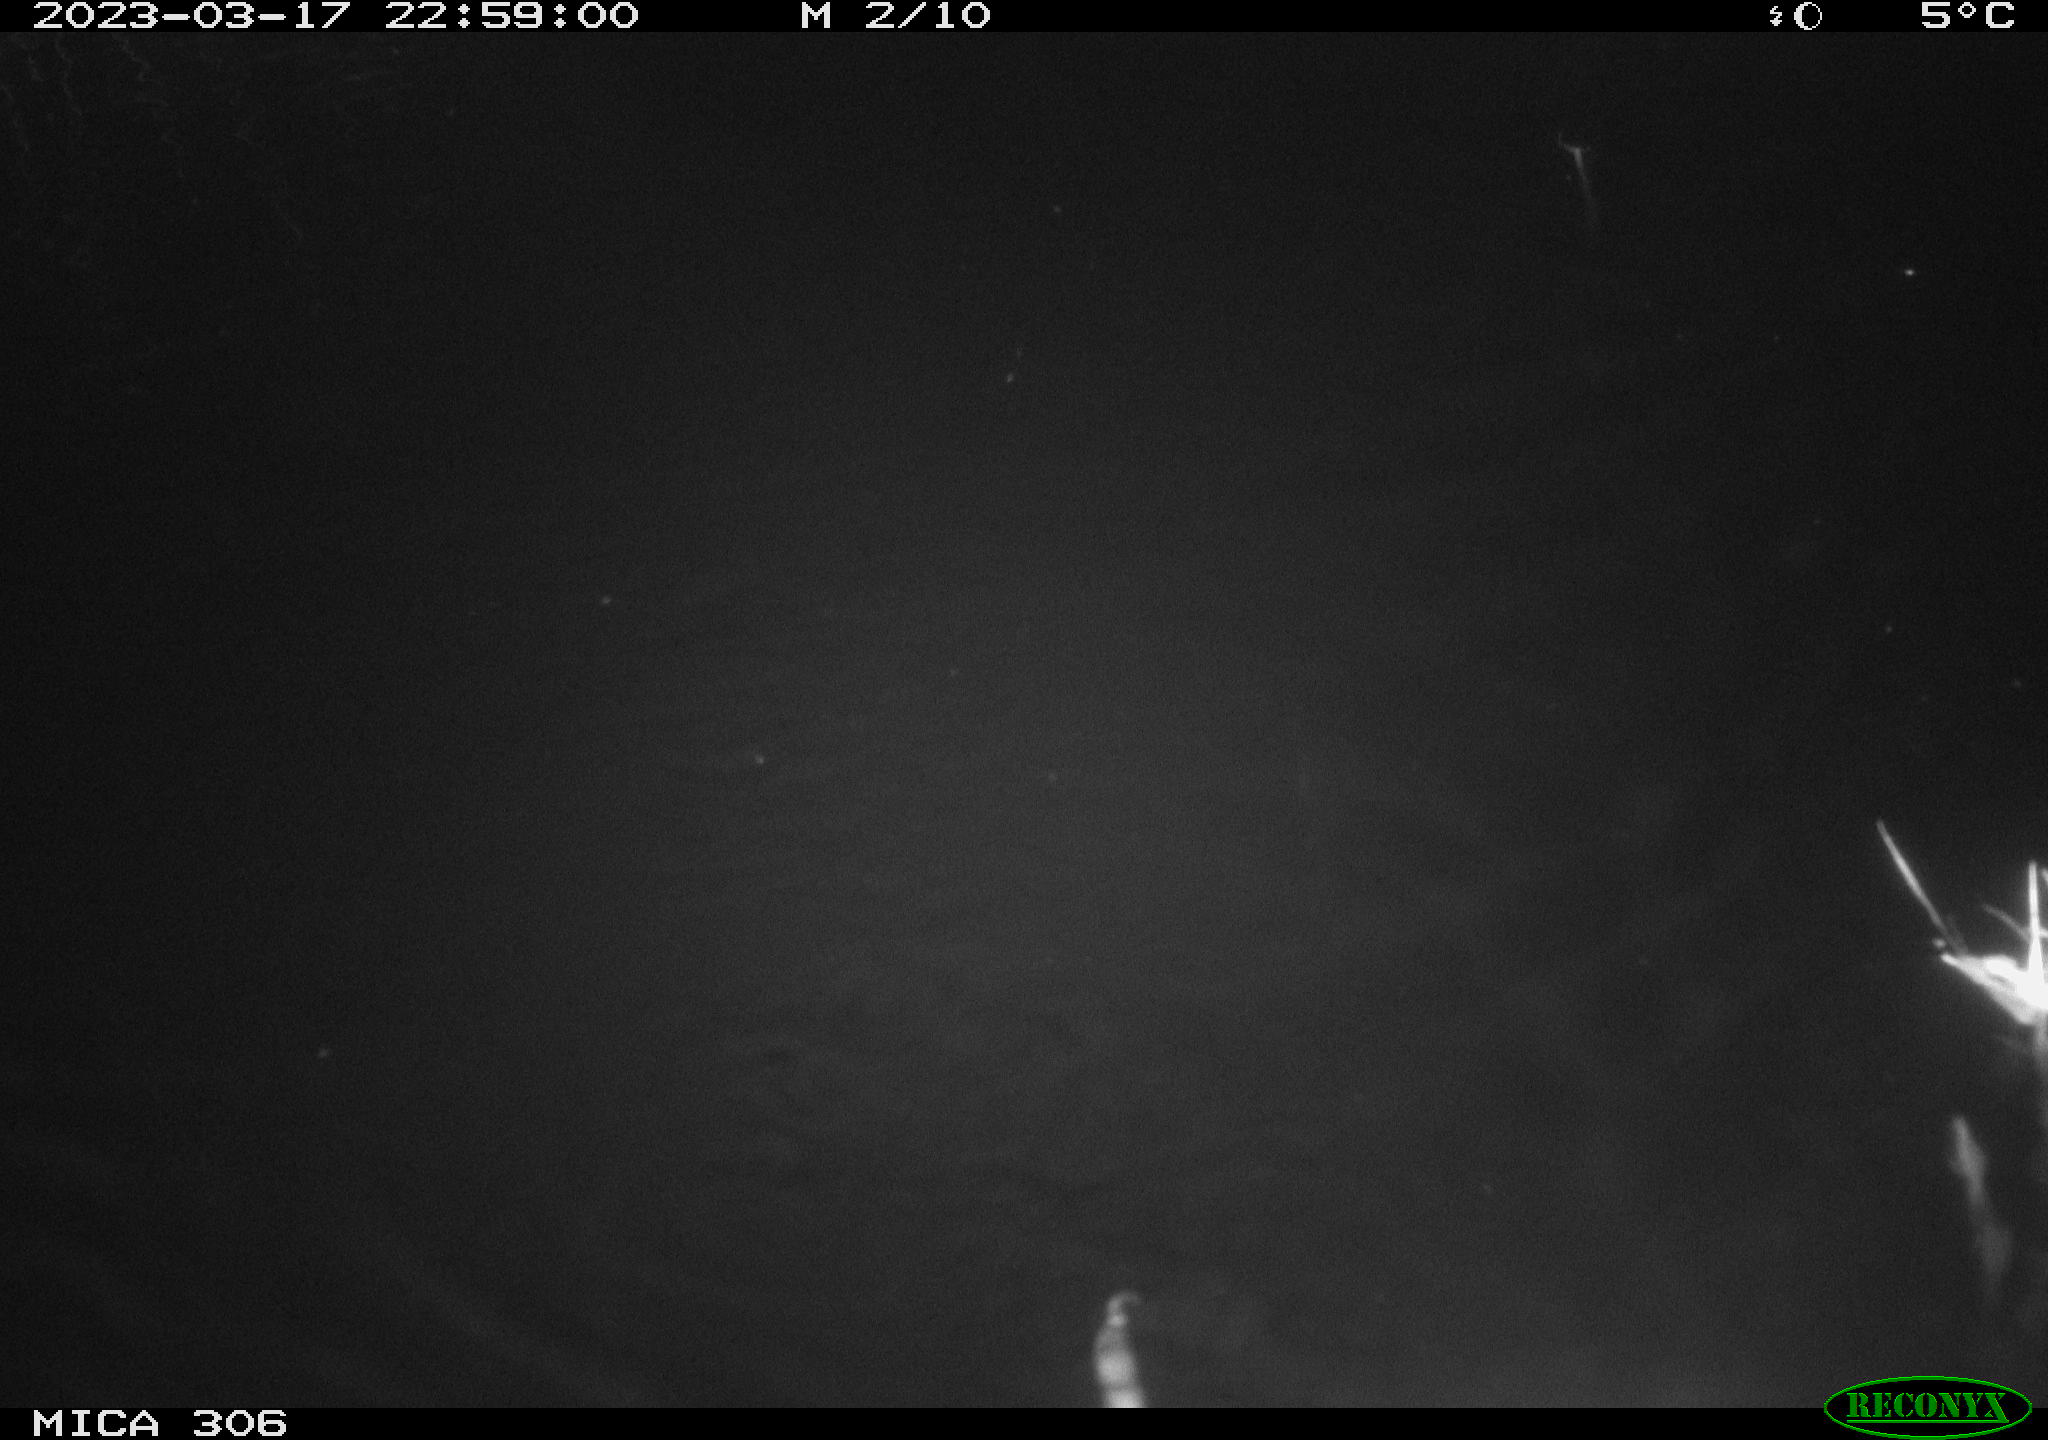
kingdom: Animalia
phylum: Chordata
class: Mammalia
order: Rodentia
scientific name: Rodentia
